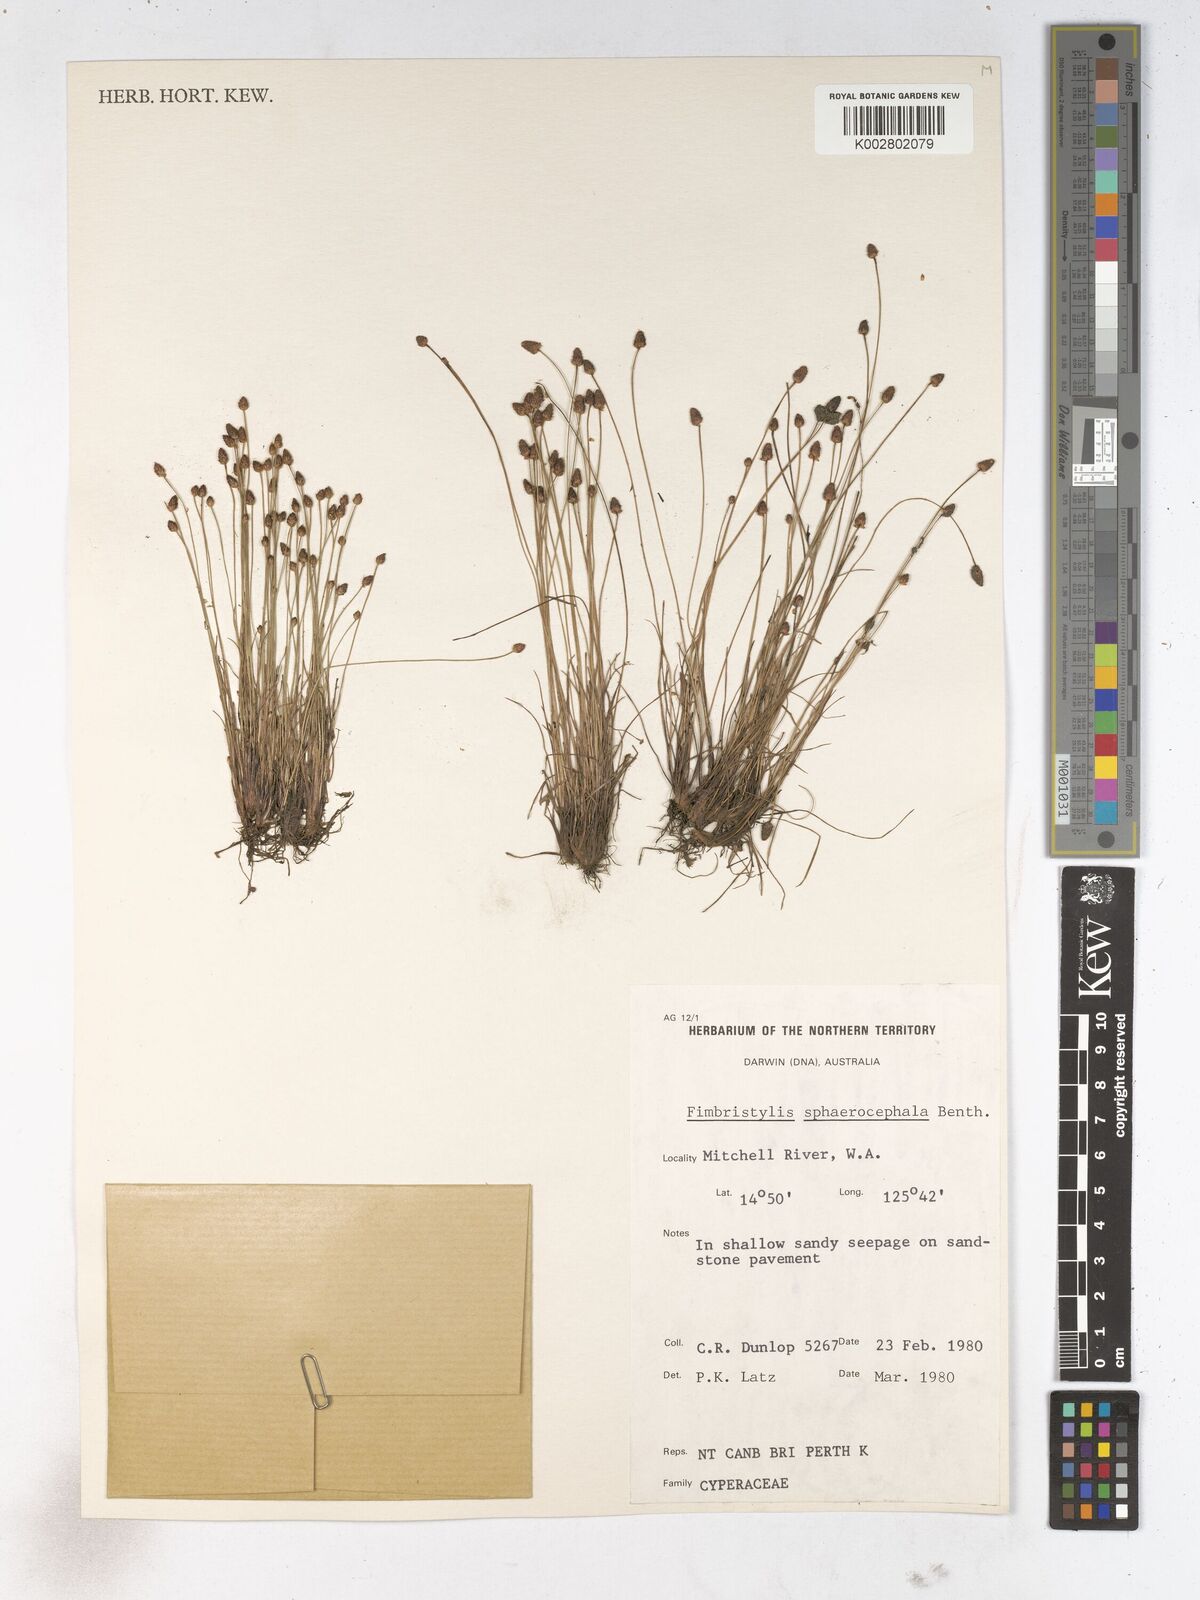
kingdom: Plantae
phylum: Tracheophyta
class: Liliopsida
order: Poales
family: Cyperaceae
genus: Fimbristylis
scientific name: Fimbristylis sphaerocephala
